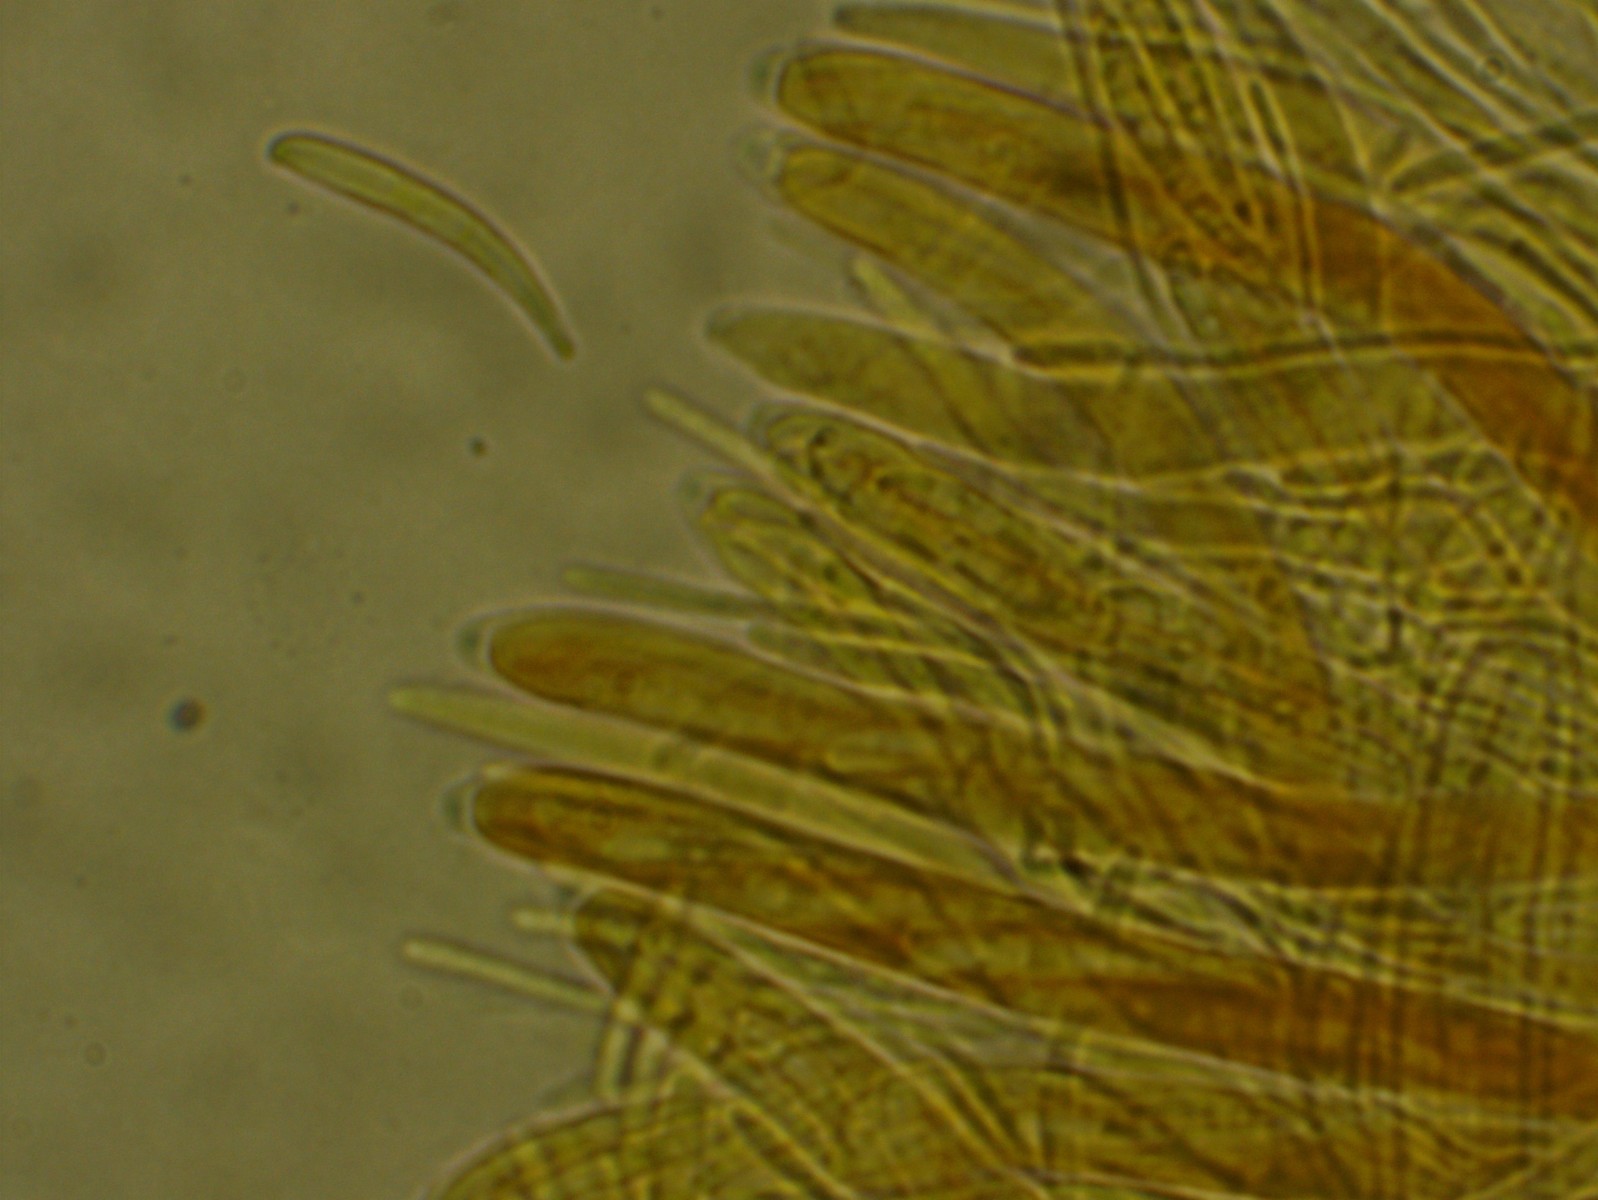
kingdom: Fungi
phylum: Ascomycota
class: Leotiomycetes
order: Helotiales
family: Helotiaceae
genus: Hymenoscyphus
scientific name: Hymenoscyphus serotinus
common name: krumsporet stilkskive
